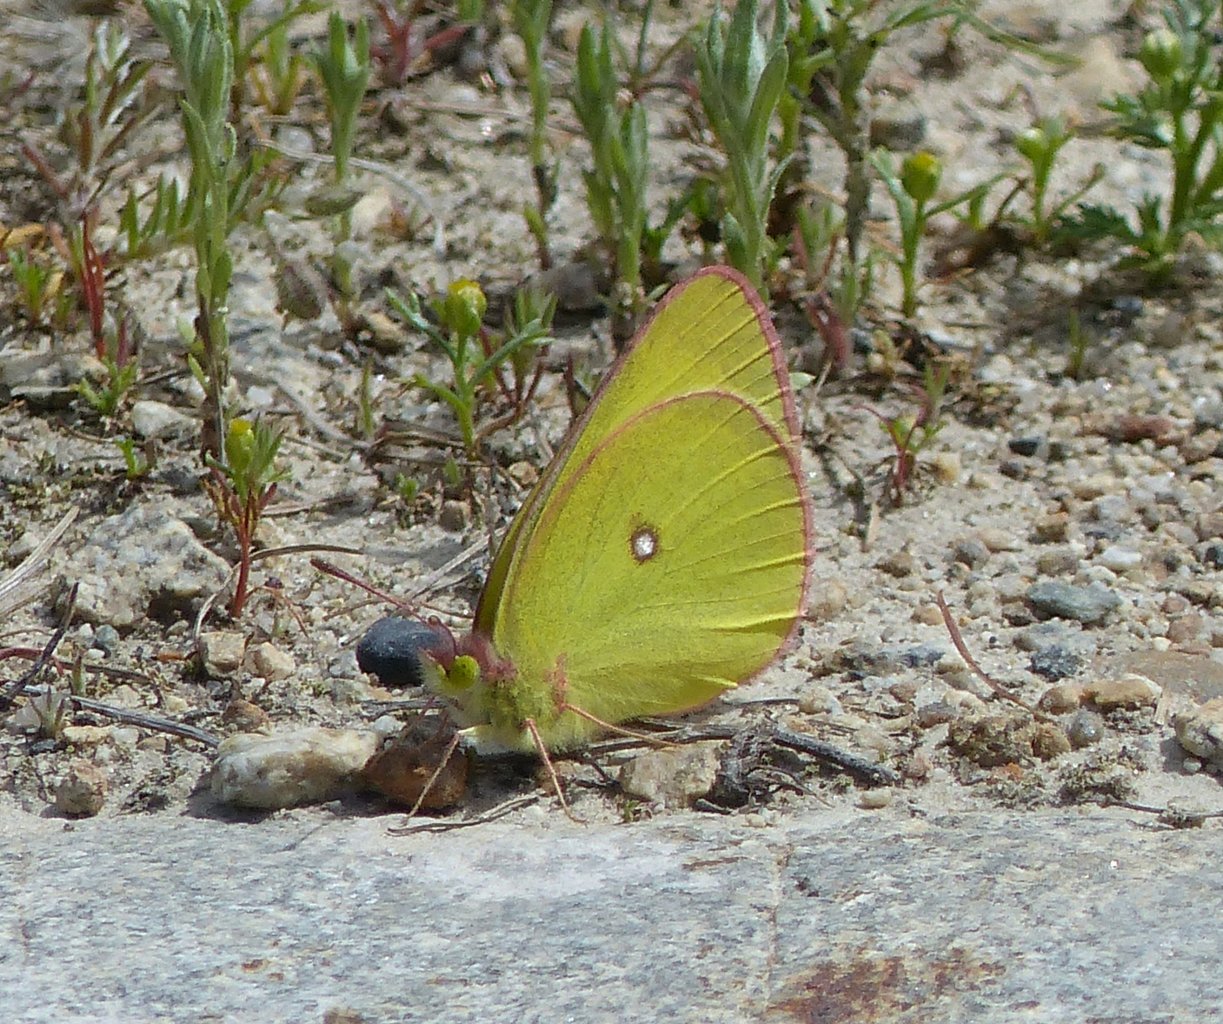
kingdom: Animalia
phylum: Arthropoda
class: Insecta
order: Lepidoptera
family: Pieridae
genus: Colias
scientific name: Colias interior
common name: Pink-edged Sulphur
